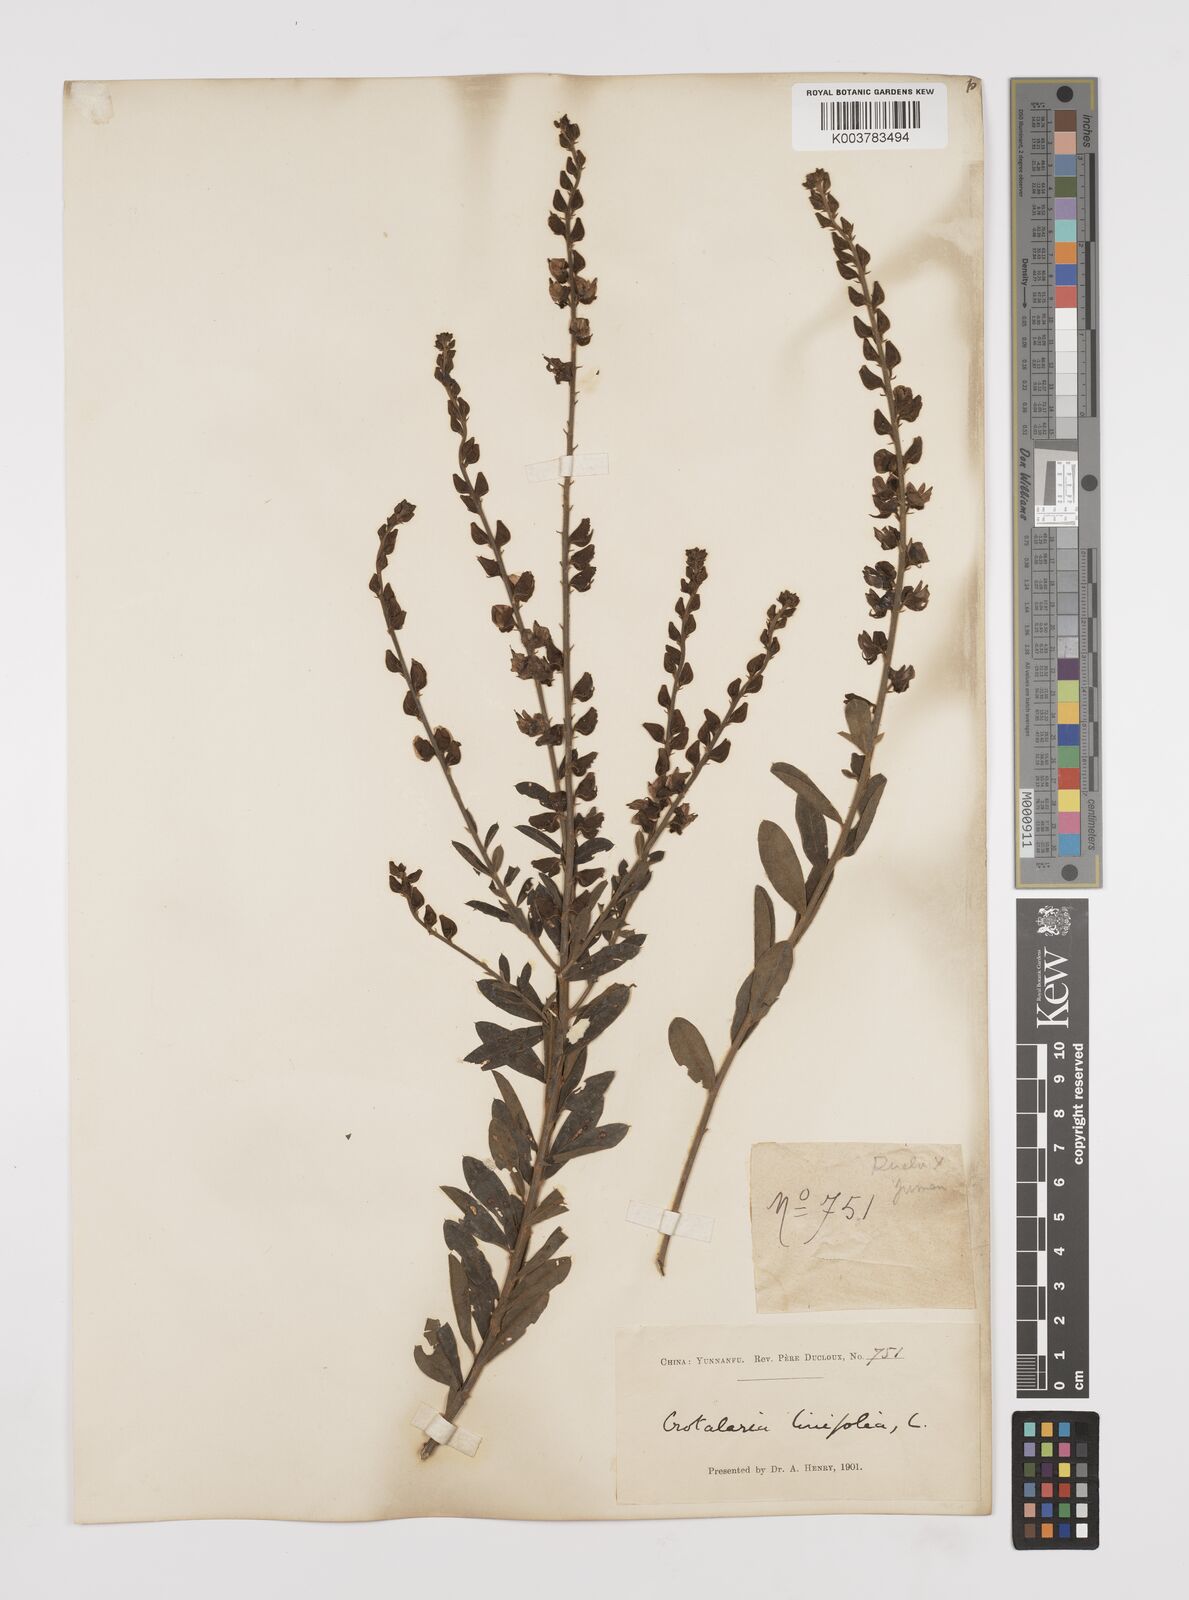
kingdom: Plantae
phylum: Tracheophyta
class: Magnoliopsida
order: Fabales
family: Fabaceae
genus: Crotalaria
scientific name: Crotalaria linifolia
